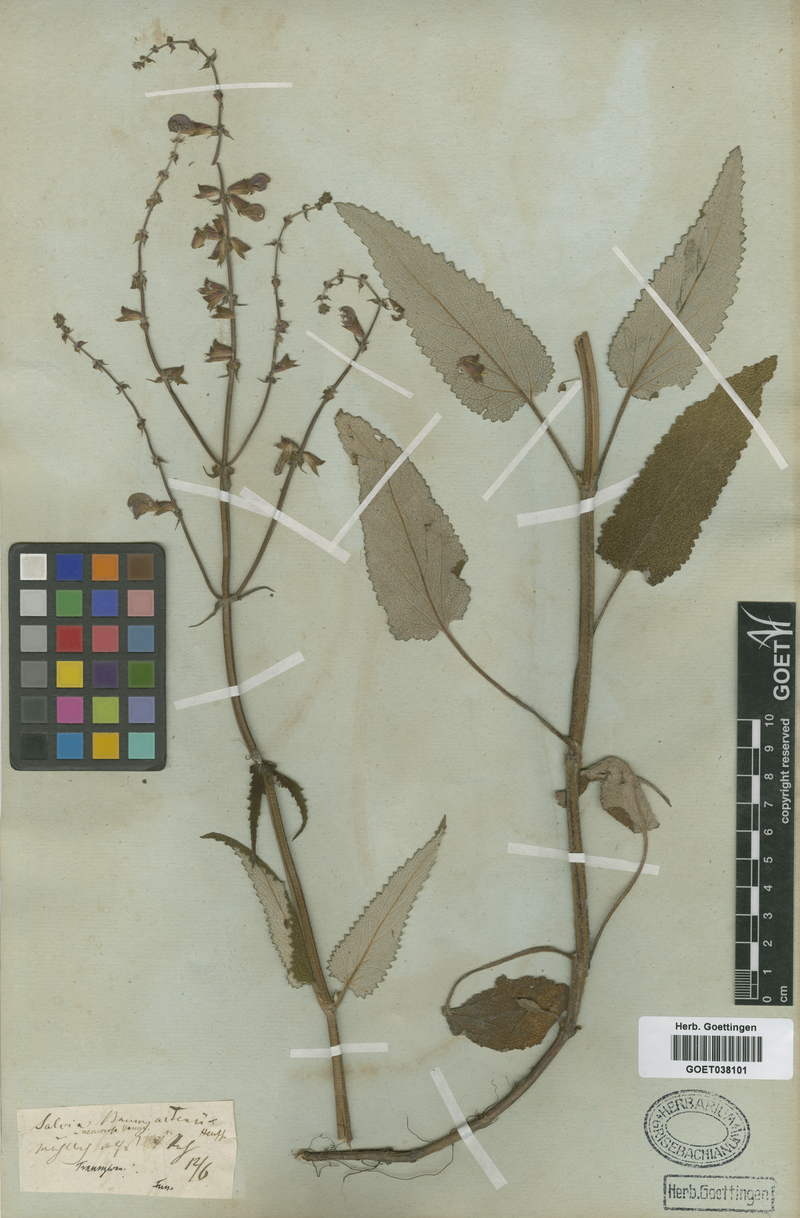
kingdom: Plantae
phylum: Tracheophyta
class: Magnoliopsida
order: Lamiales
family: Lamiaceae
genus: Salvia
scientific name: Salvia transsylvanica
